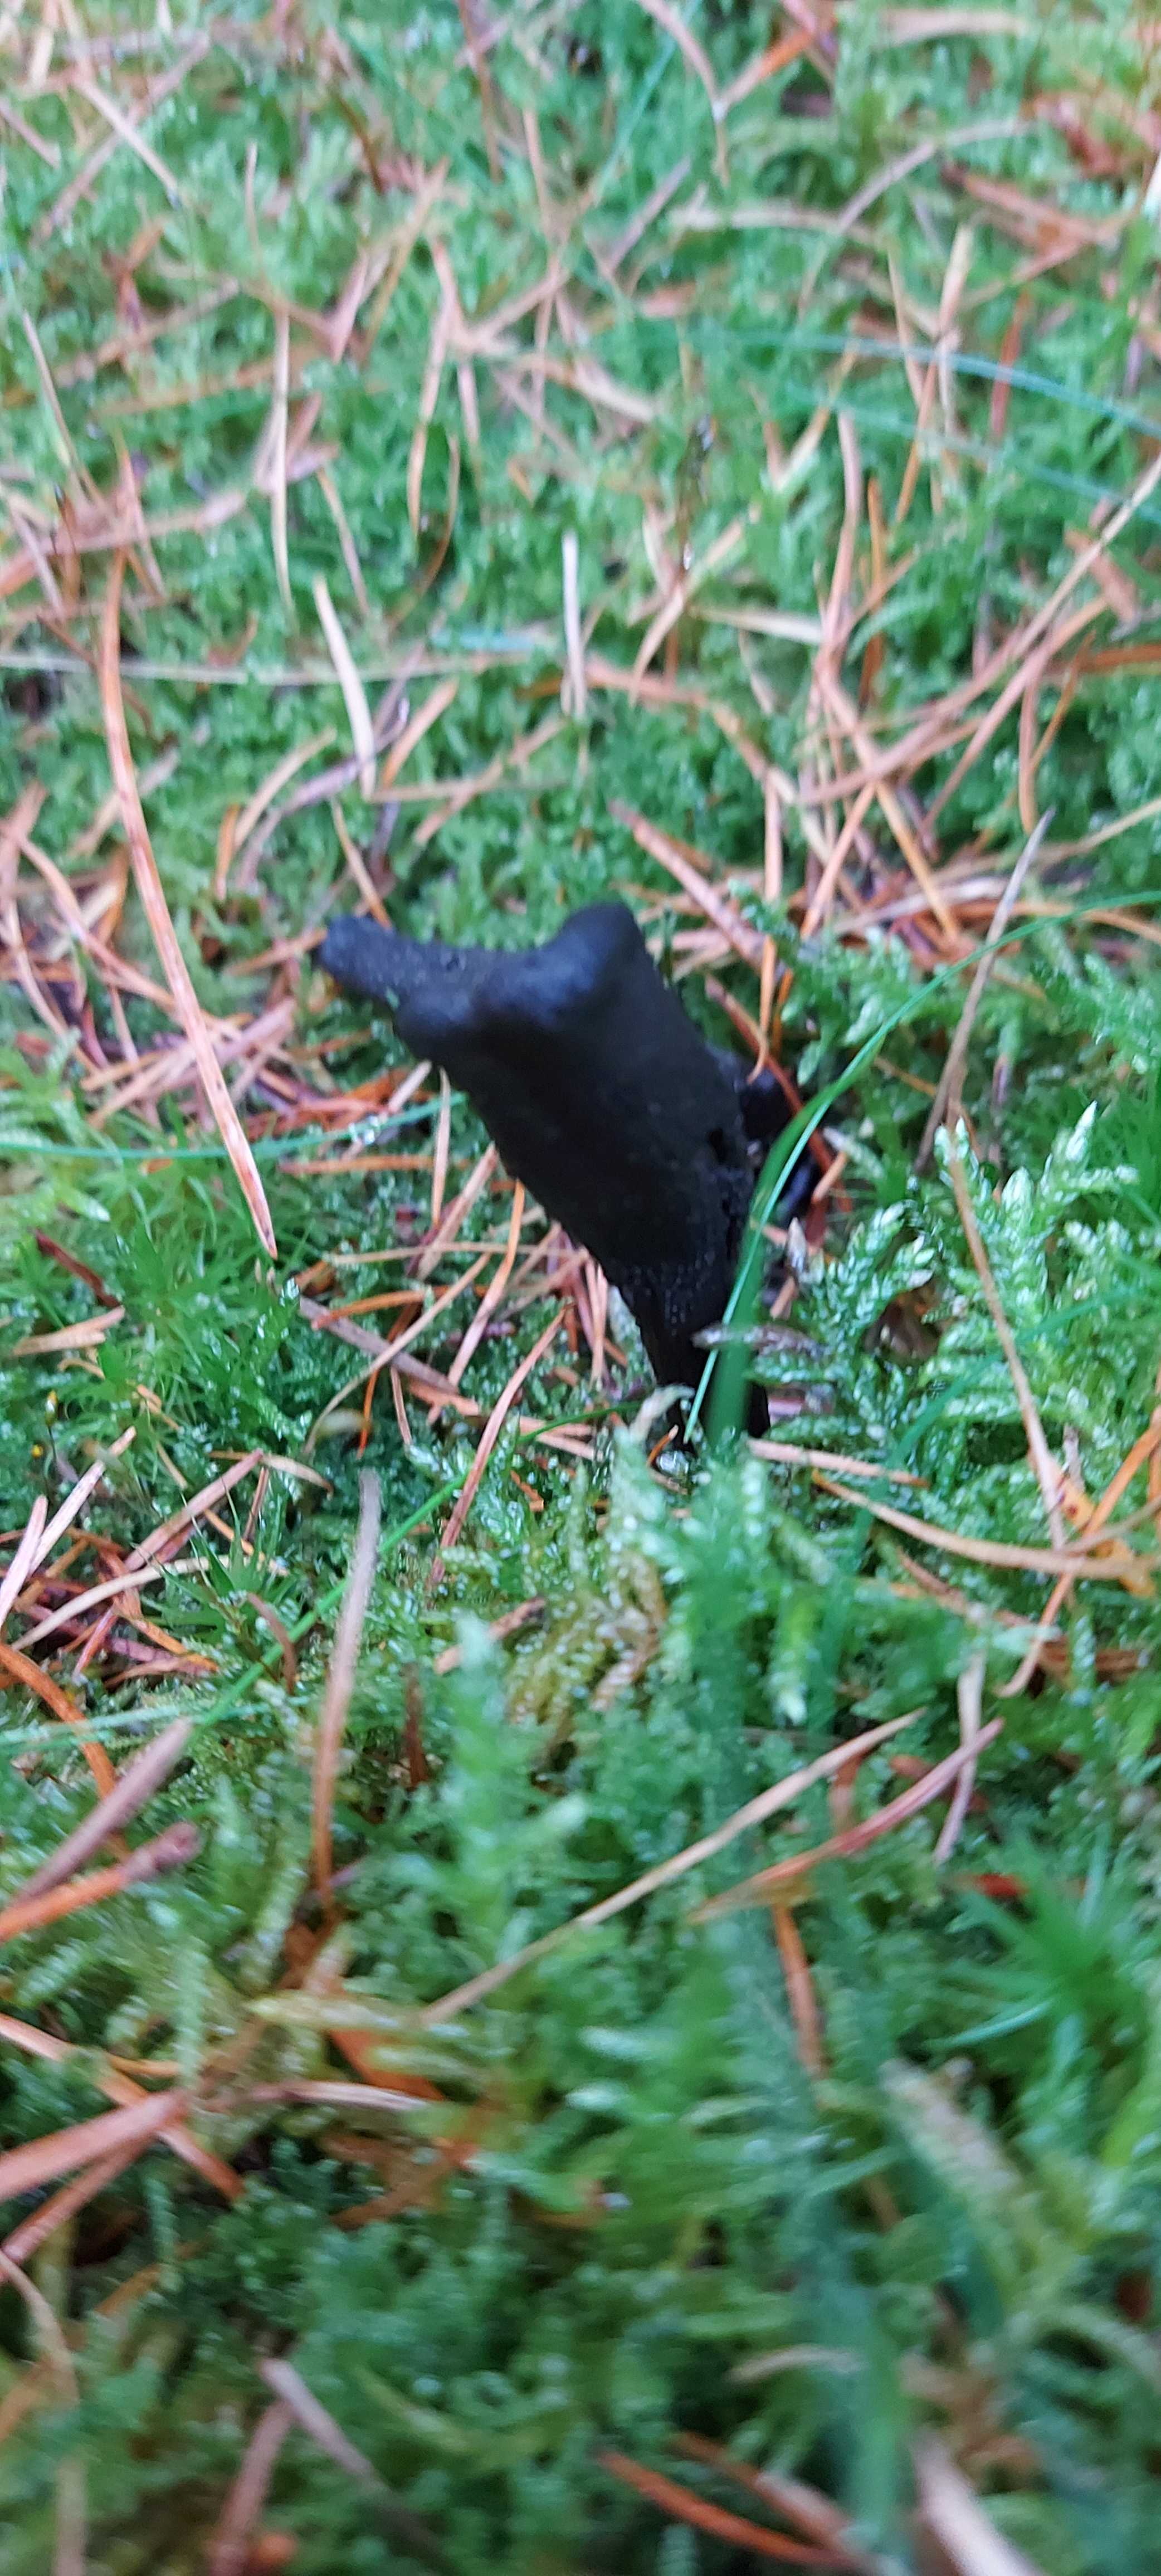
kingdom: Fungi
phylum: Ascomycota
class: Sordariomycetes
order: Hypocreales
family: Ophiocordycipitaceae
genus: Tolypocladium
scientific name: Tolypocladium ophioglossoides
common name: slank snyltekølle
